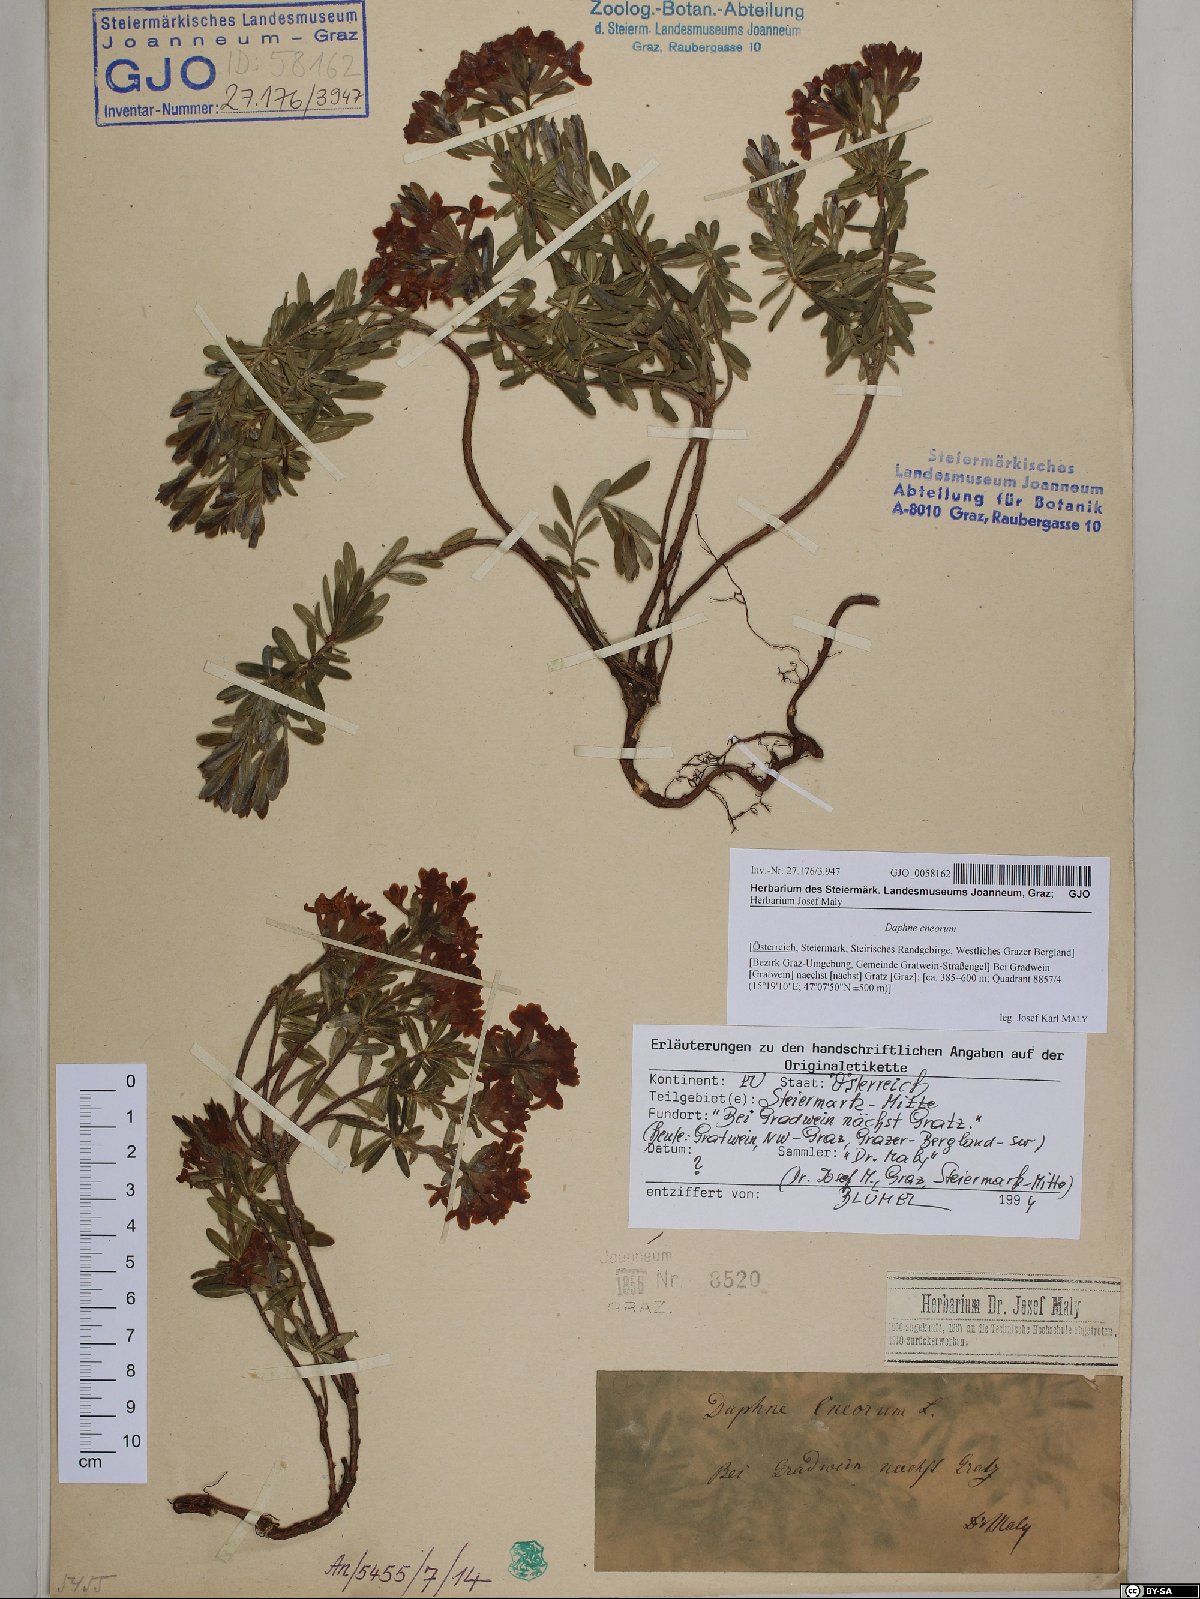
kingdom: Plantae
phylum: Tracheophyta
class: Magnoliopsida
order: Malvales
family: Thymelaeaceae
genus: Daphne
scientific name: Daphne cneorum
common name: Garland-flower
